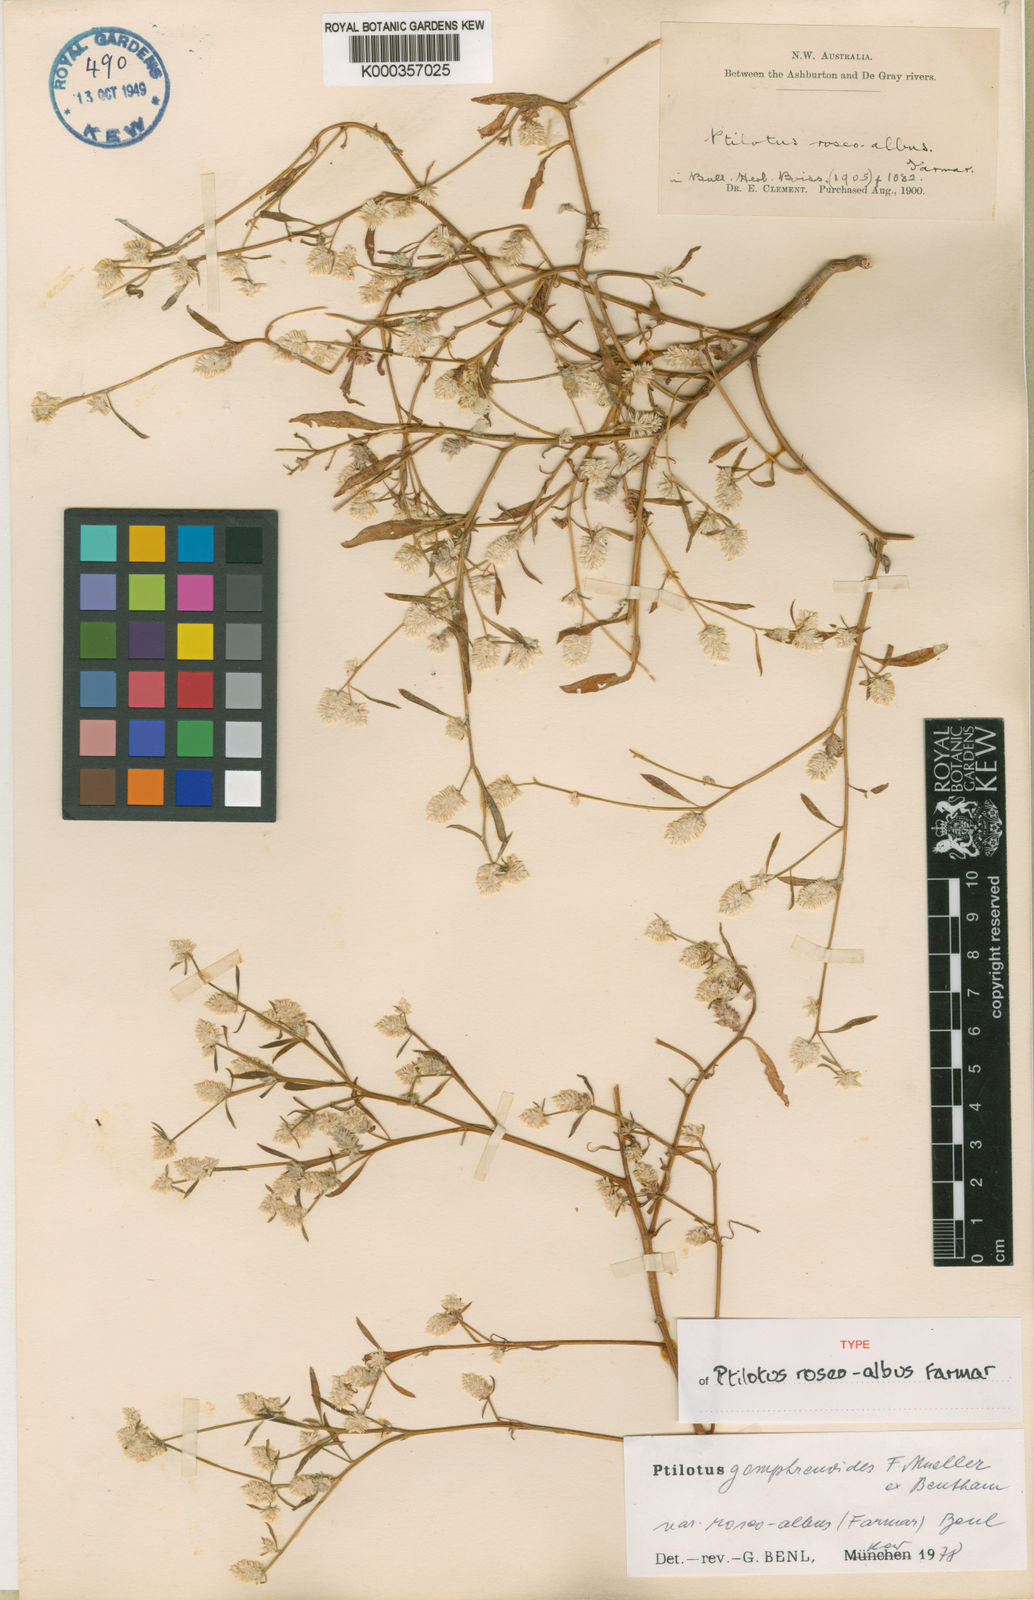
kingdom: Plantae
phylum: Tracheophyta
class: Magnoliopsida
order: Caryophyllales
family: Amaranthaceae
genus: Ptilotus
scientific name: Ptilotus
